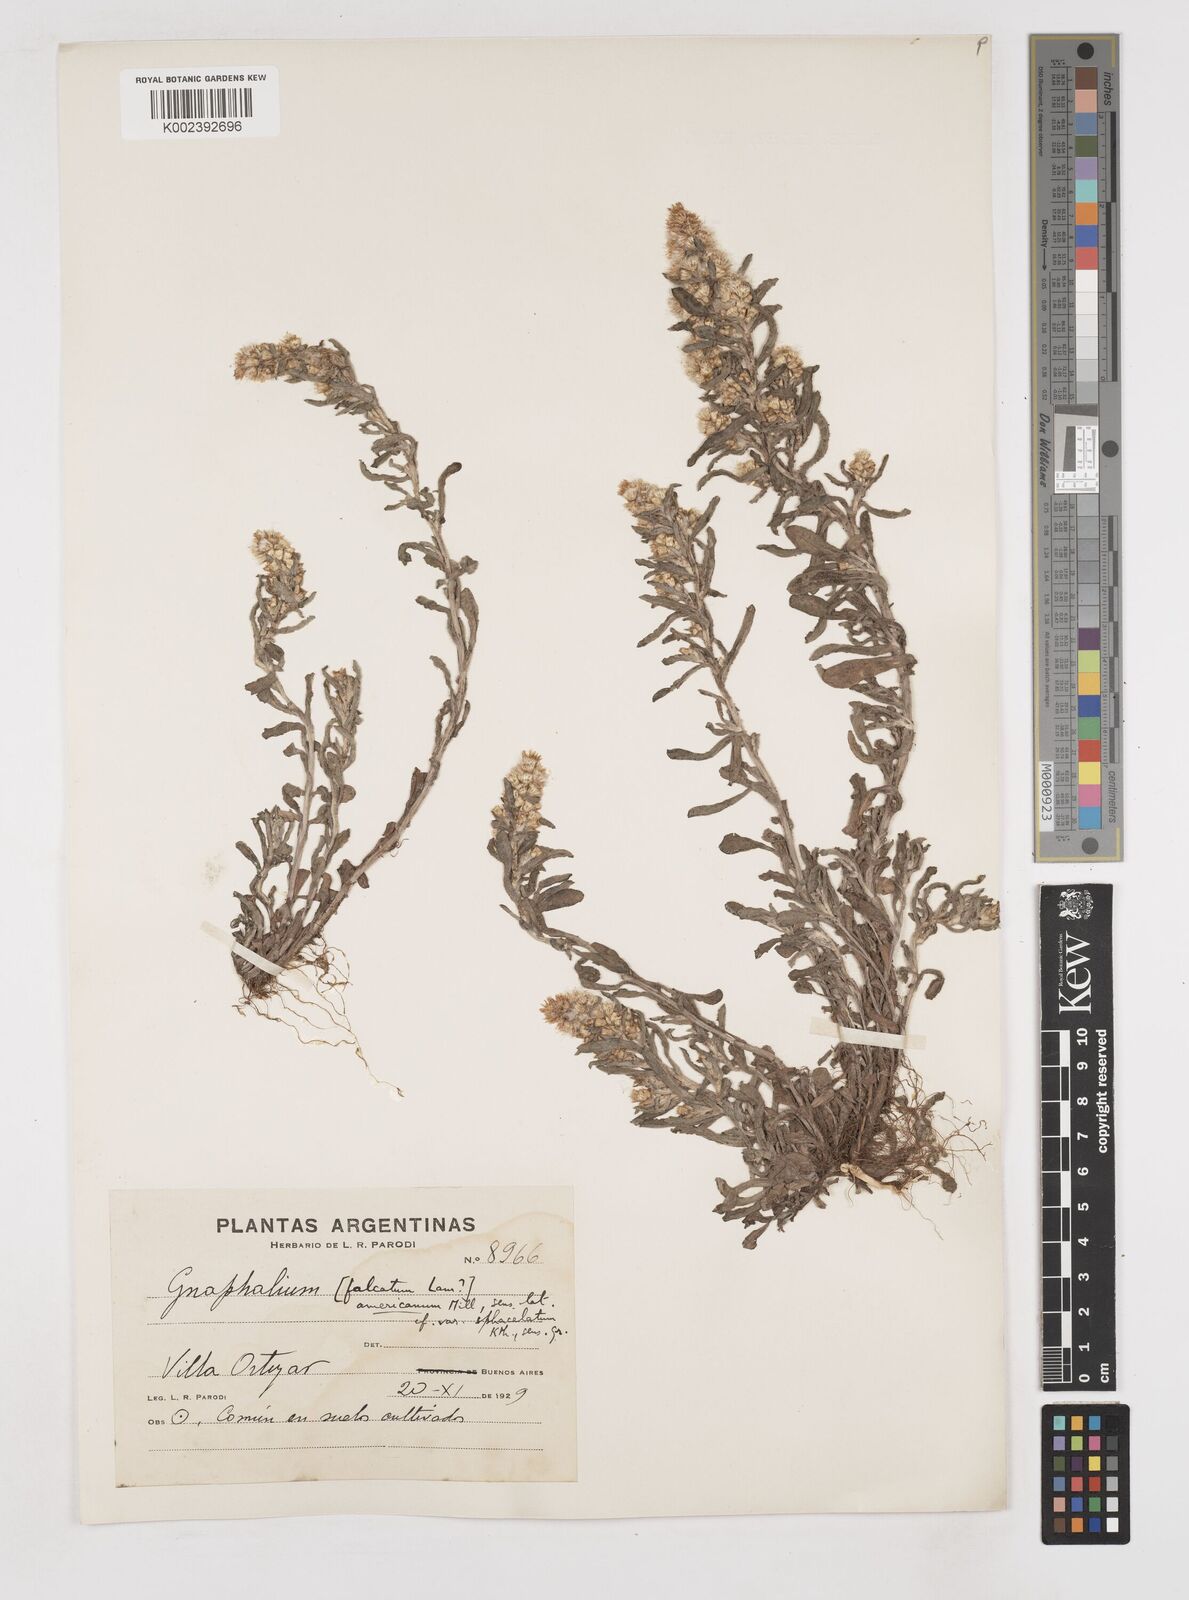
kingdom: Plantae
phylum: Tracheophyta
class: Magnoliopsida
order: Asterales
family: Asteraceae
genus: Anaphalis
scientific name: Anaphalis margaritacea
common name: Pearly everlasting
